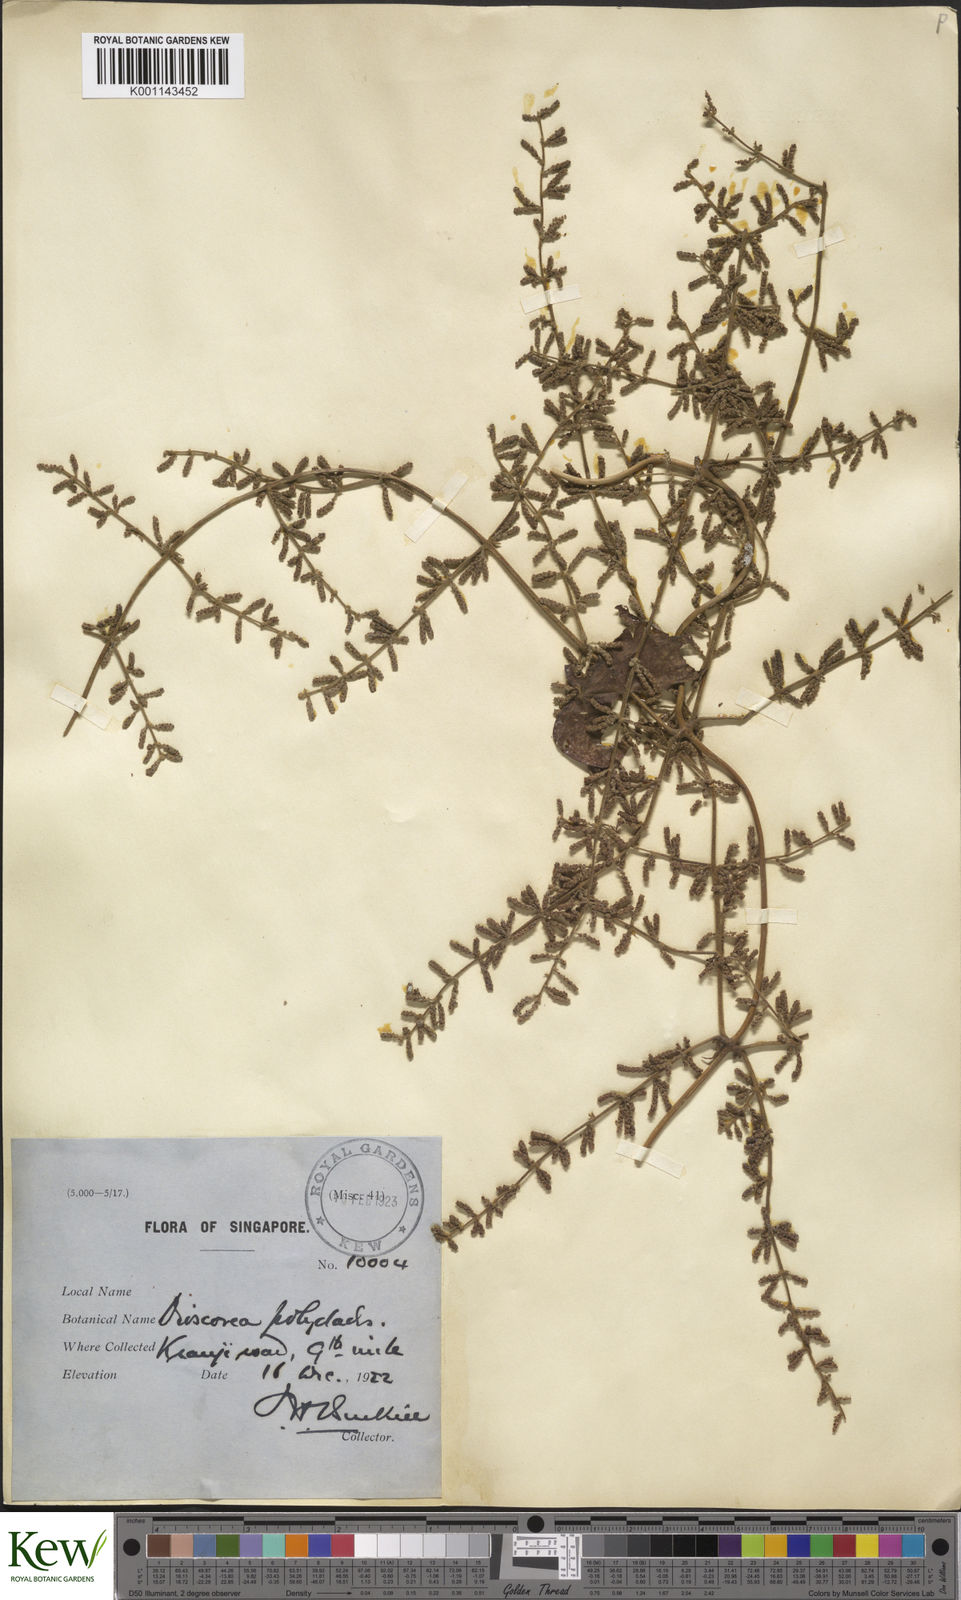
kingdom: Plantae
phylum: Tracheophyta
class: Liliopsida
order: Dioscoreales
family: Dioscoreaceae
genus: Dioscorea
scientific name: Dioscorea polyclados
